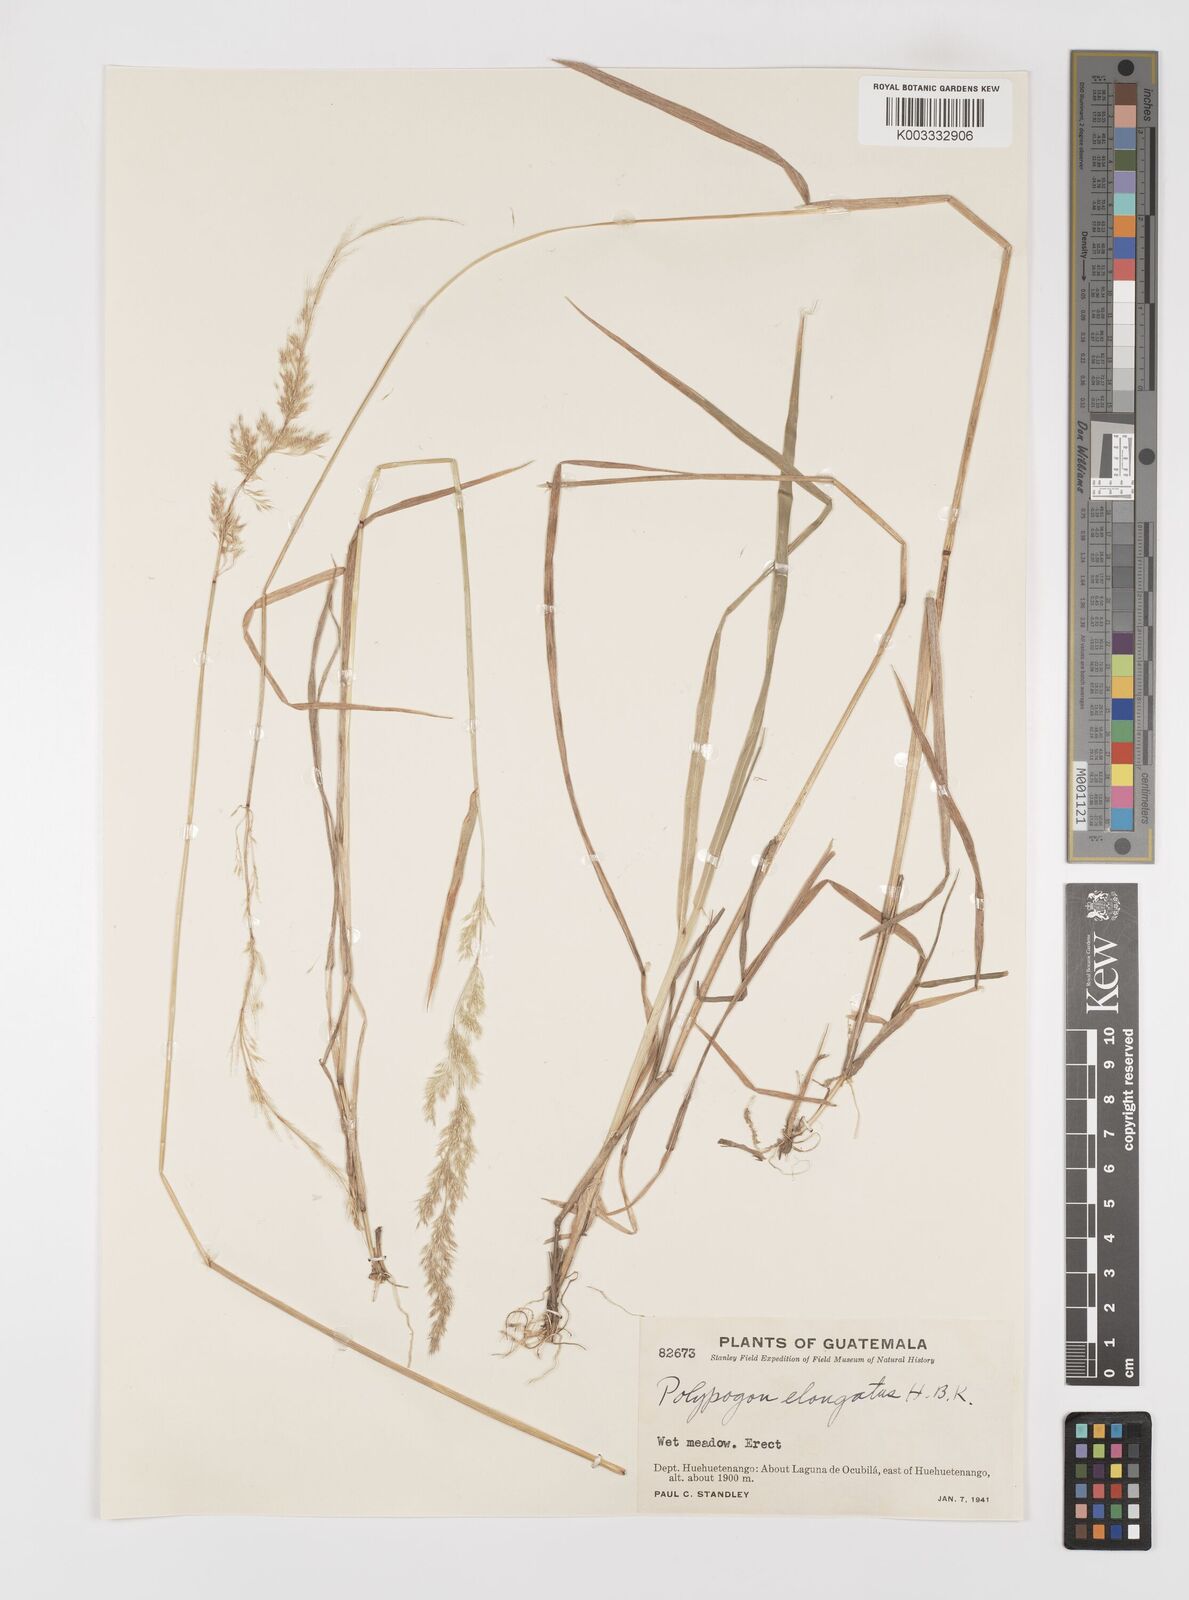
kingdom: Plantae
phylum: Tracheophyta
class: Liliopsida
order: Poales
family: Poaceae
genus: Polypogon
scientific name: Polypogon elongatus
